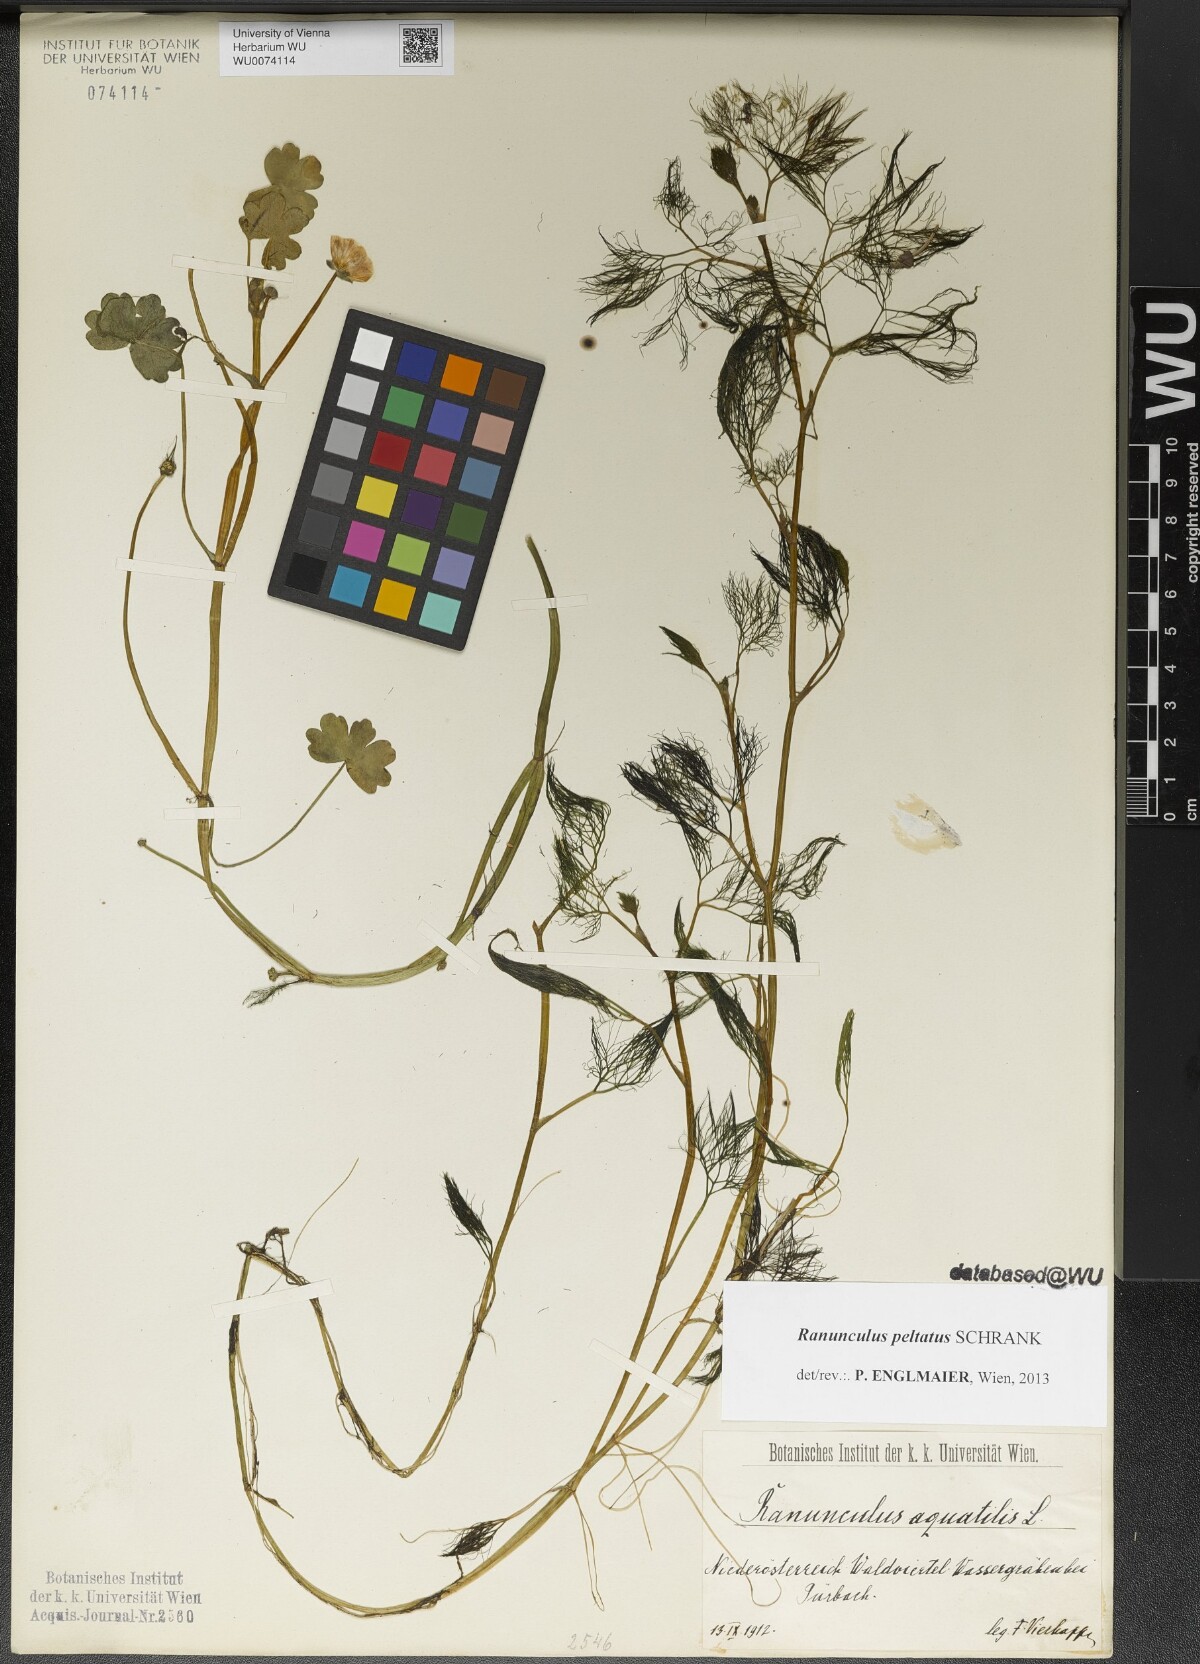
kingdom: Plantae
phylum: Tracheophyta
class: Magnoliopsida
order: Ranunculales
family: Ranunculaceae
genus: Ranunculus
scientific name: Ranunculus peltatus
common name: Pond water-crowfoot
